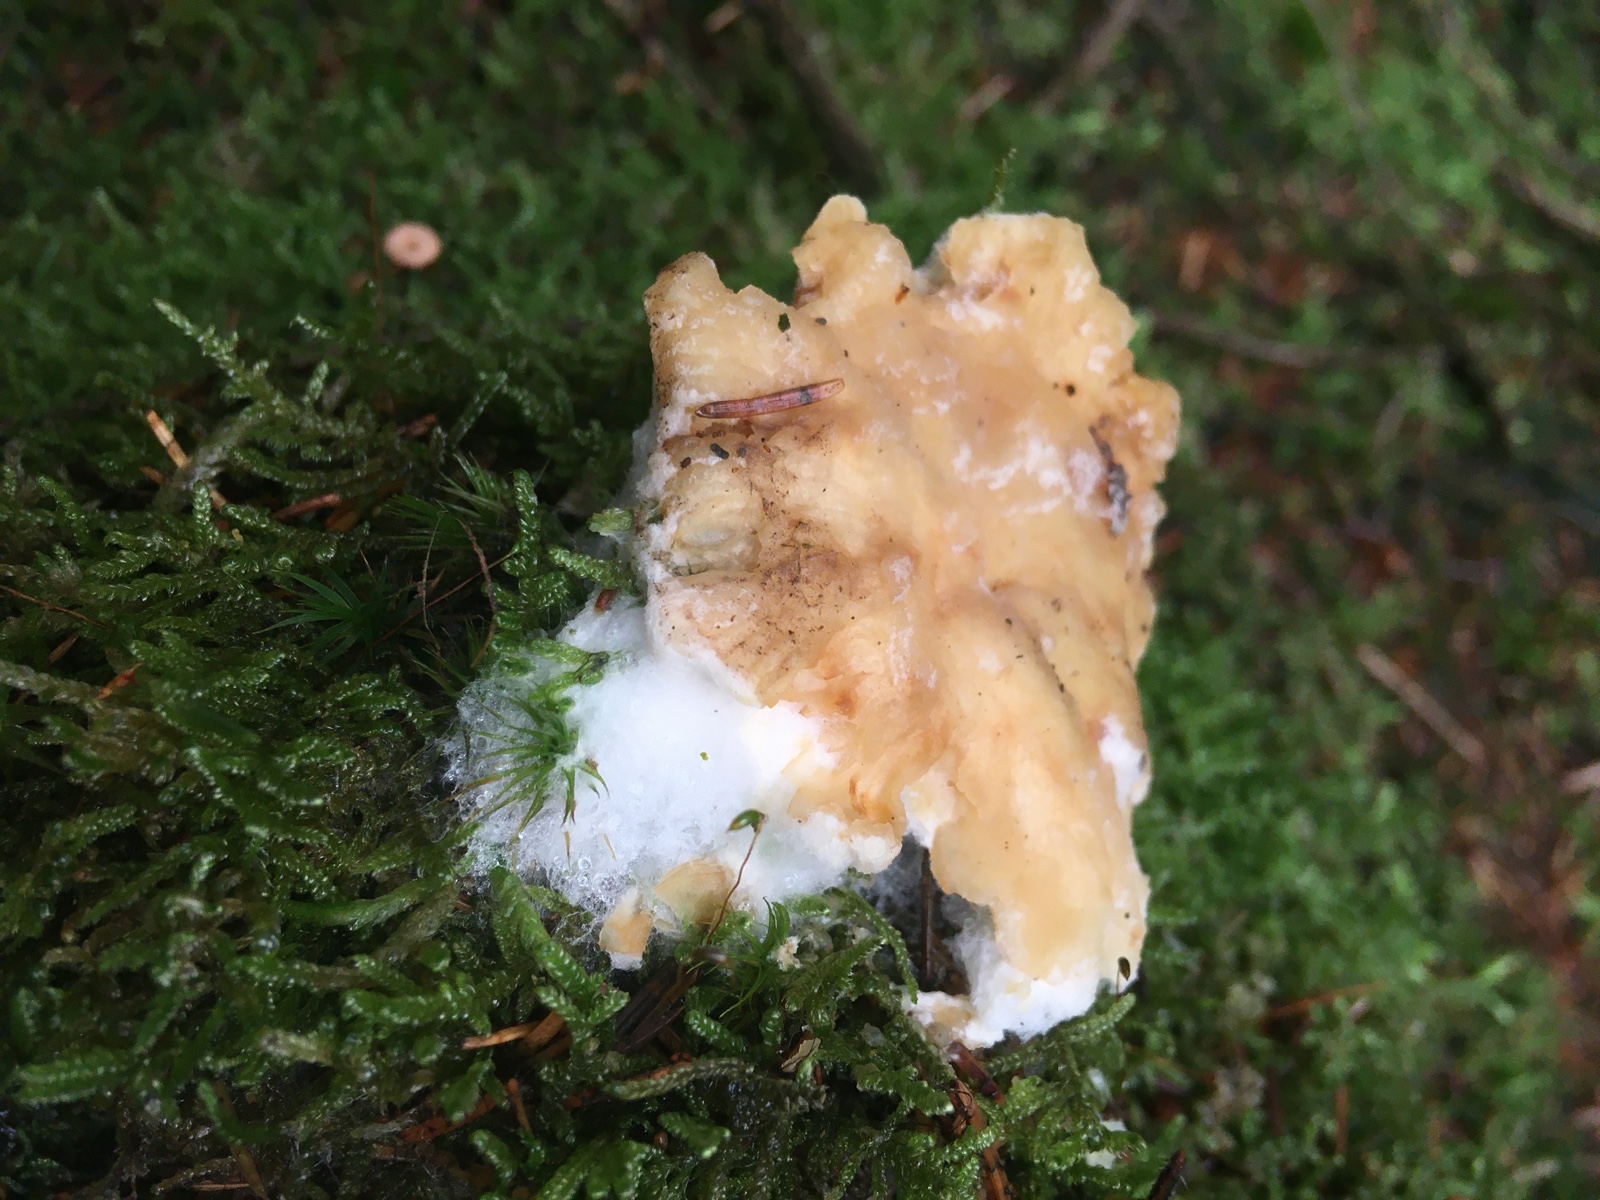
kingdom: Fungi
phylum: Ascomycota
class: Sordariomycetes
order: Hypocreales
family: Hypocreaceae
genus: Hypomyces
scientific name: Hypomyces ochraceus
